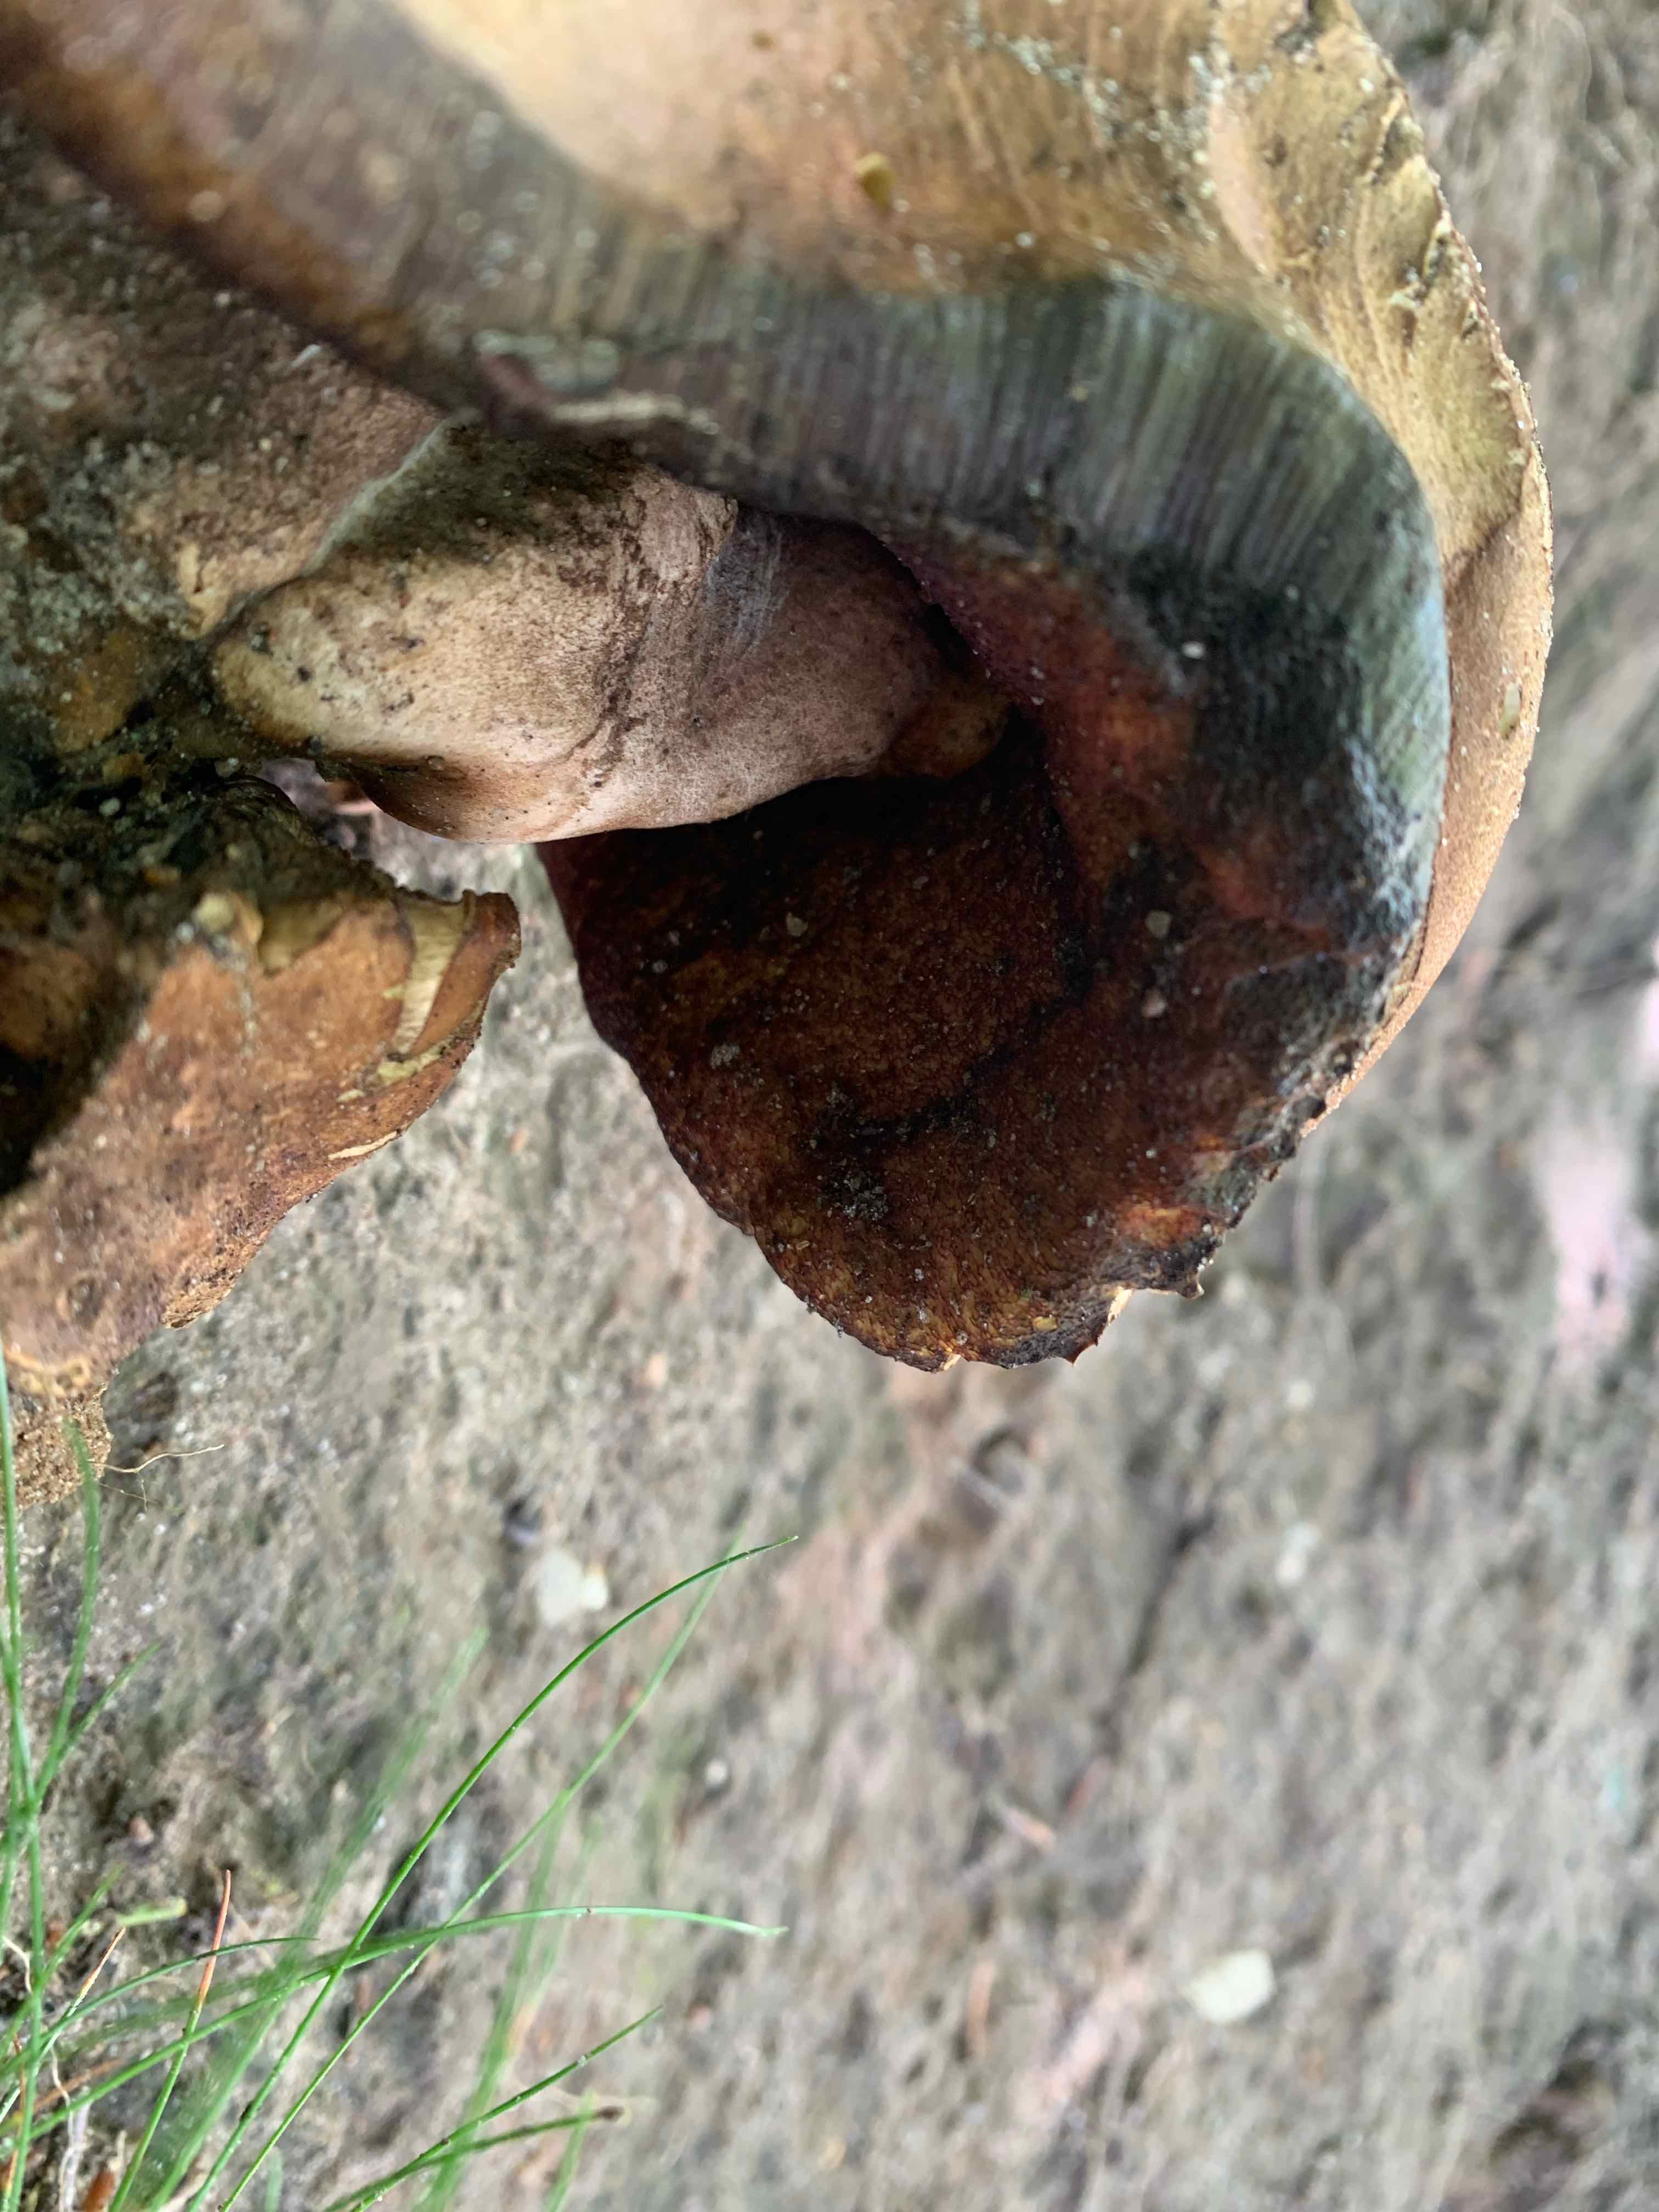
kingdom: Fungi
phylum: Basidiomycota
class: Agaricomycetes
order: Boletales
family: Boletaceae
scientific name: Boletaceae
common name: rørhatfamilien
